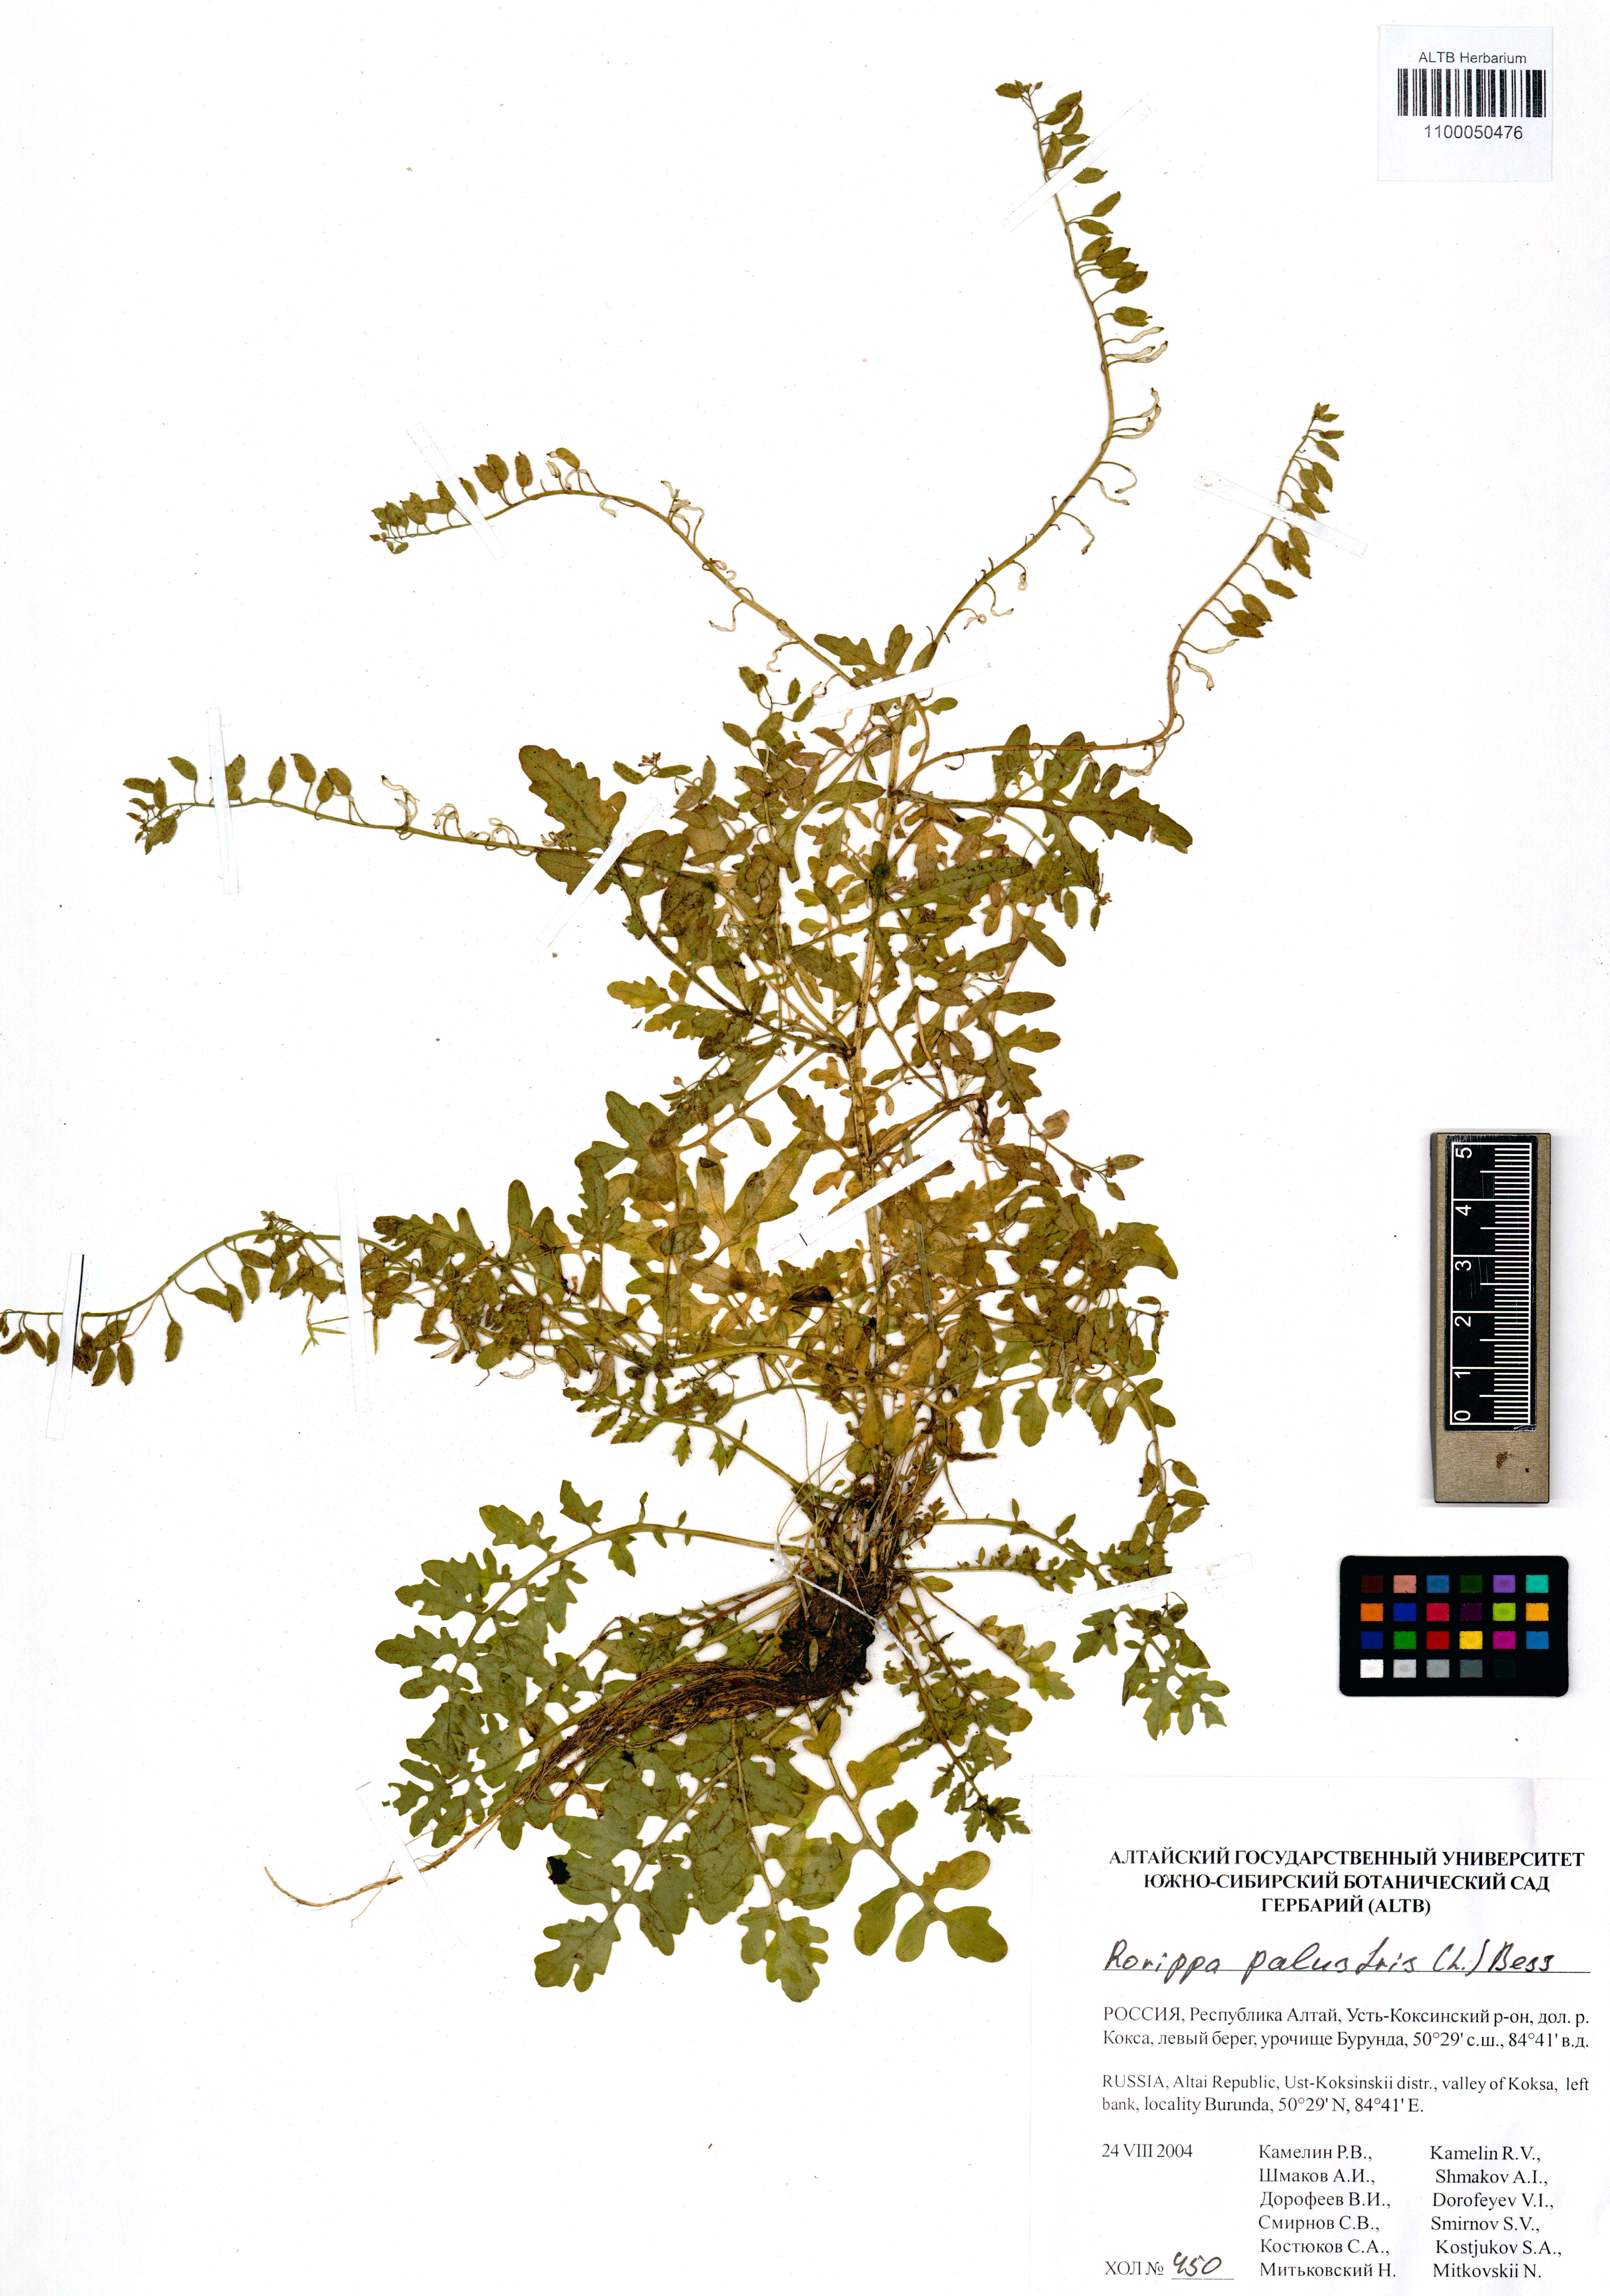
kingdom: Plantae
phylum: Tracheophyta
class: Magnoliopsida
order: Brassicales
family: Brassicaceae
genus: Rorippa
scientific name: Rorippa palustris
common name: Marsh yellow-cress
